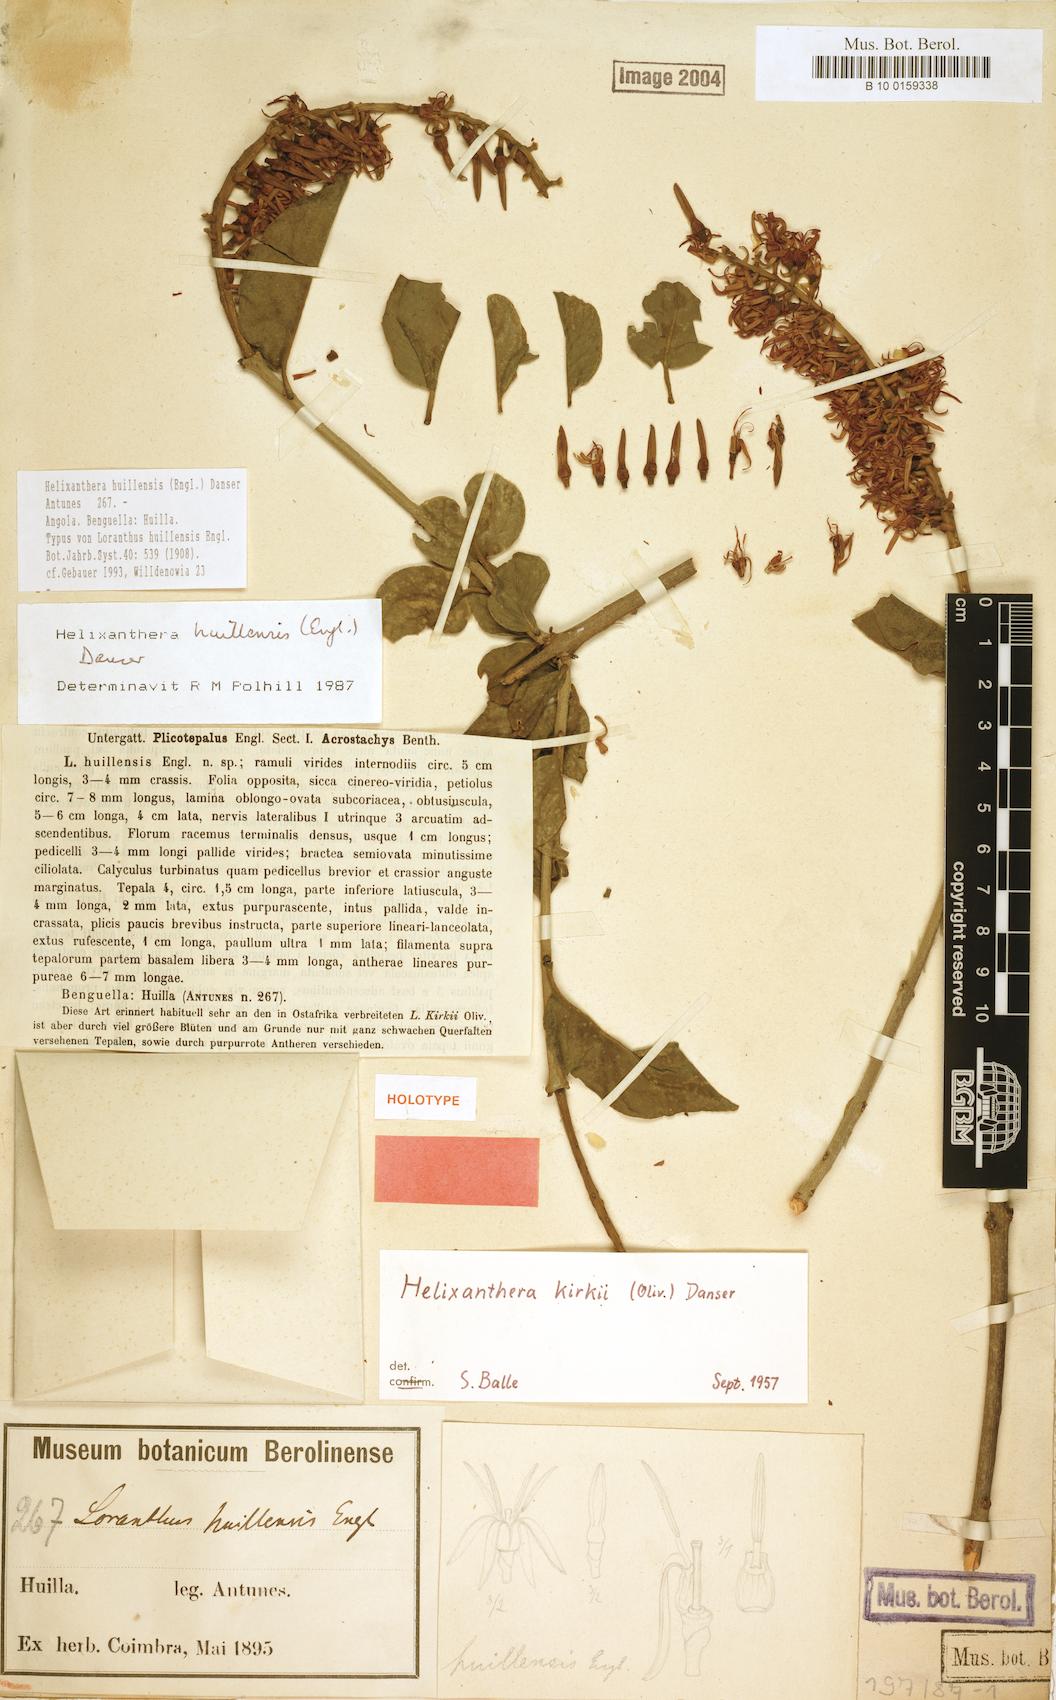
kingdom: Plantae
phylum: Tracheophyta
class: Magnoliopsida
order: Santalales
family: Loranthaceae
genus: Helixanthera
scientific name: Helixanthera huillensis
